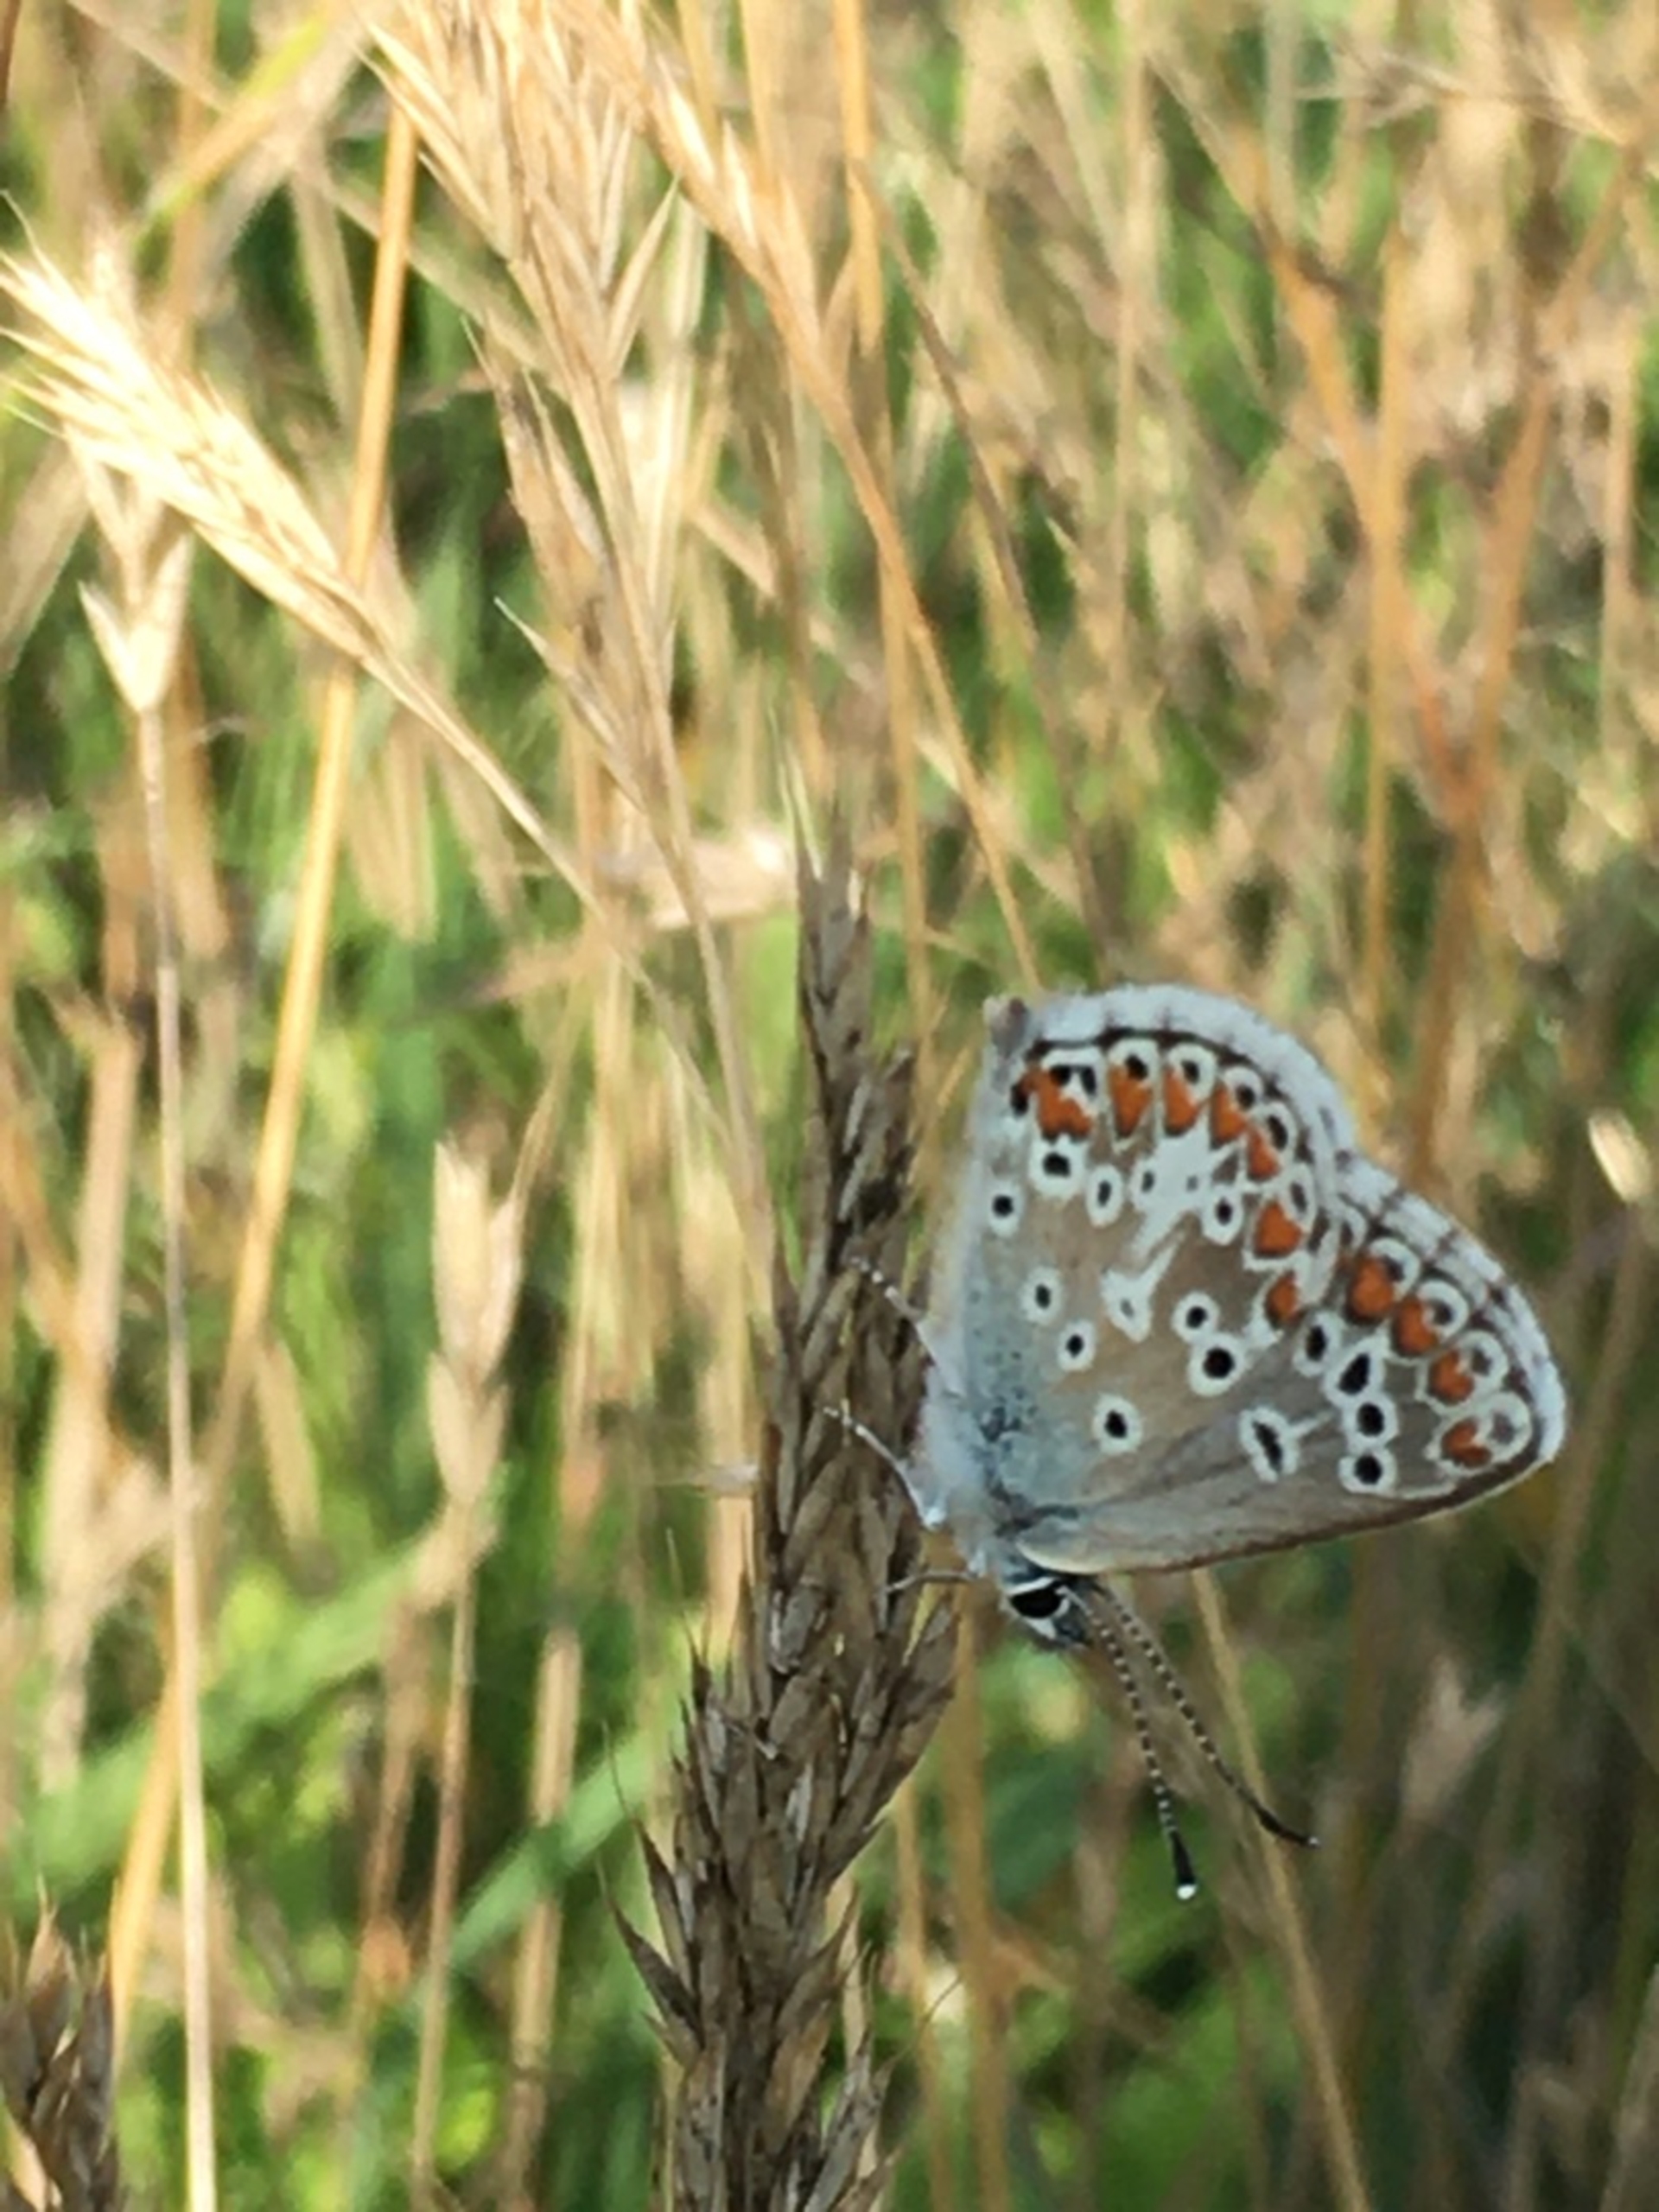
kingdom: Animalia
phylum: Arthropoda
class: Insecta
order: Lepidoptera
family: Lycaenidae
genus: Aricia
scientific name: Aricia agestis
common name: Rødplettet blåfugl
